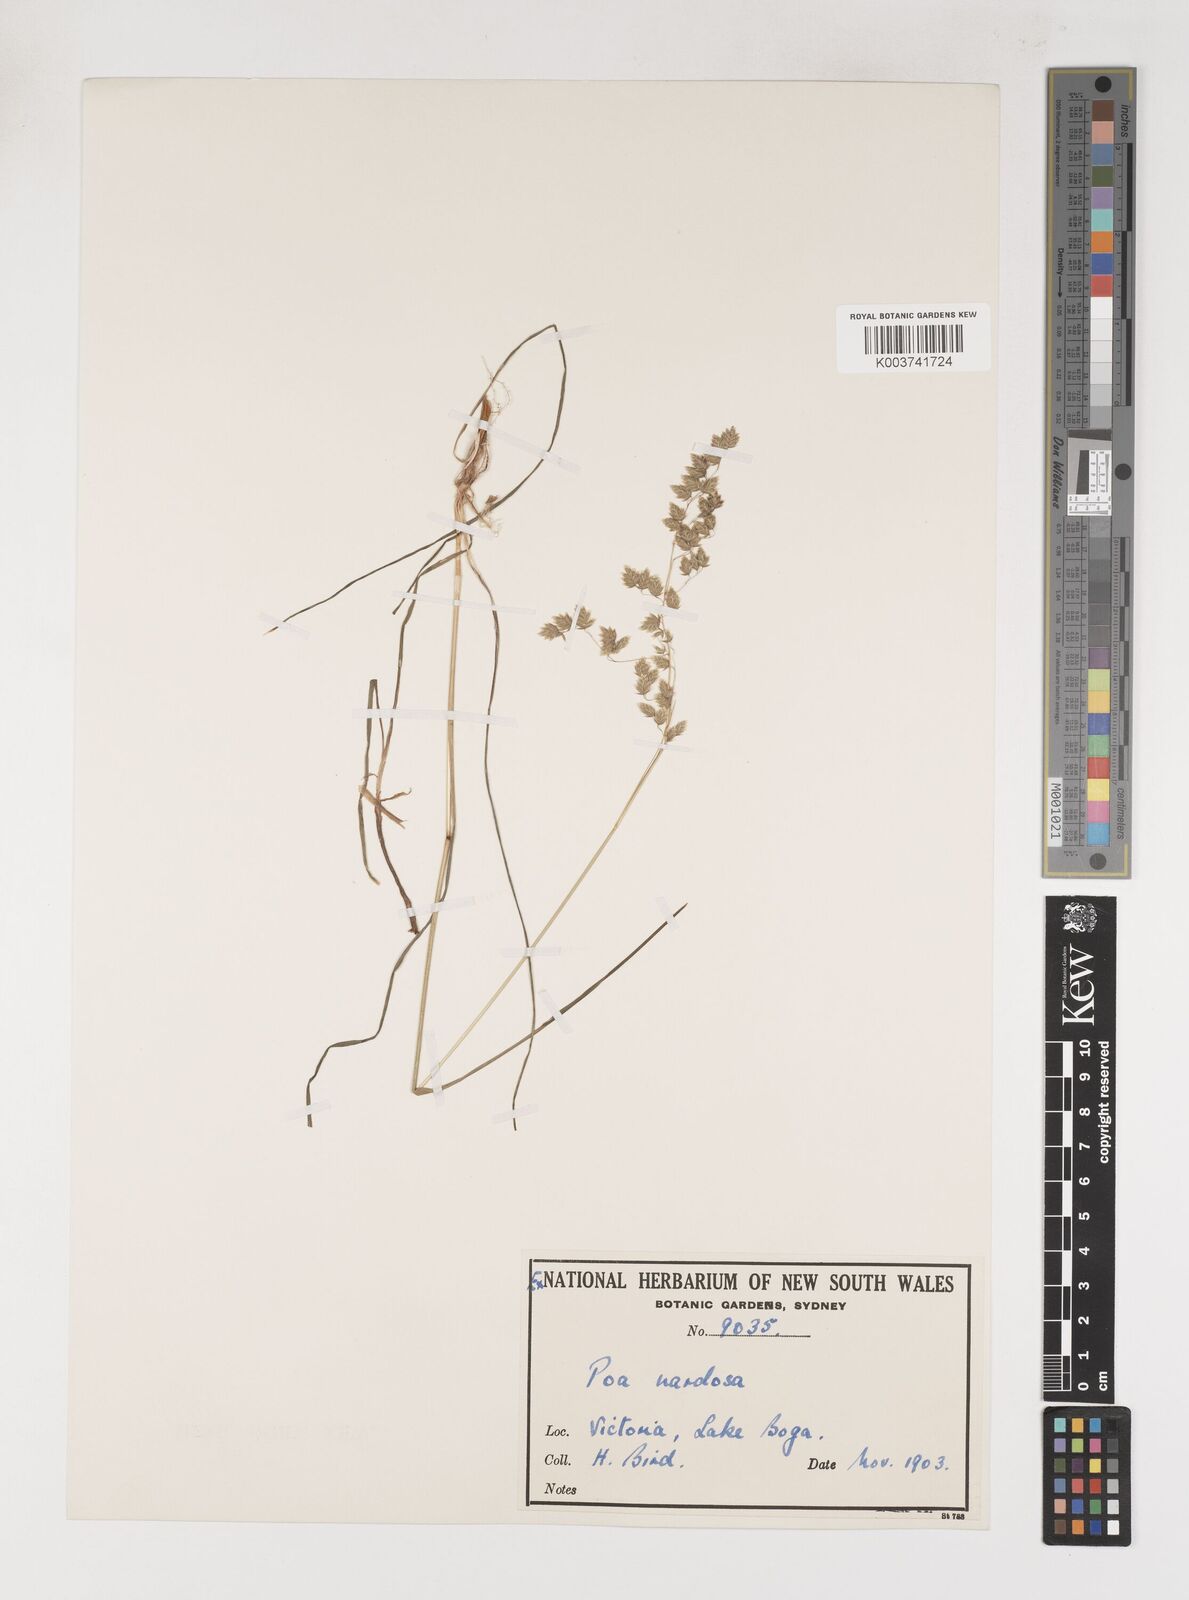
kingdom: Plantae
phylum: Tracheophyta
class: Liliopsida
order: Poales
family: Poaceae
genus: Poa
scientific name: Poa drummondiana
